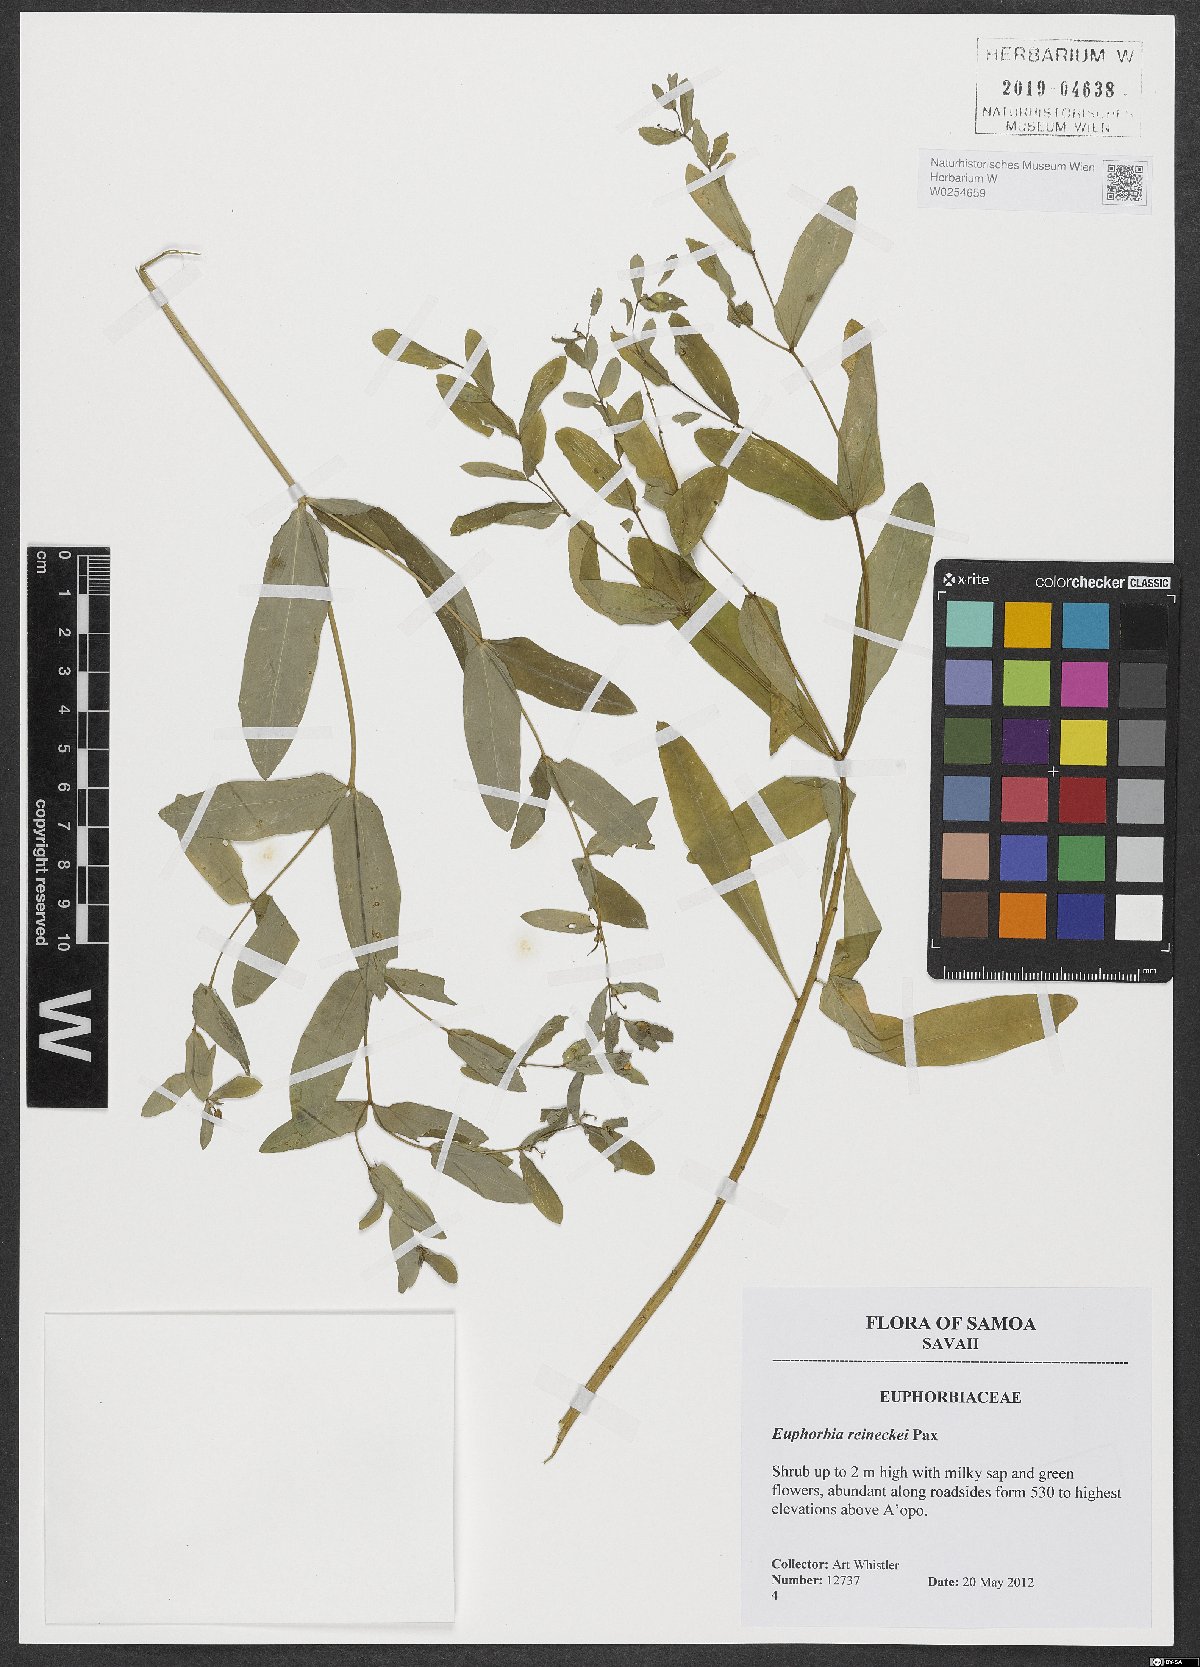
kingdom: Plantae
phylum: Tracheophyta
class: Magnoliopsida
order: Malpighiales
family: Euphorbiaceae
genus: Euphorbia
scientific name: Euphorbia reineckei
